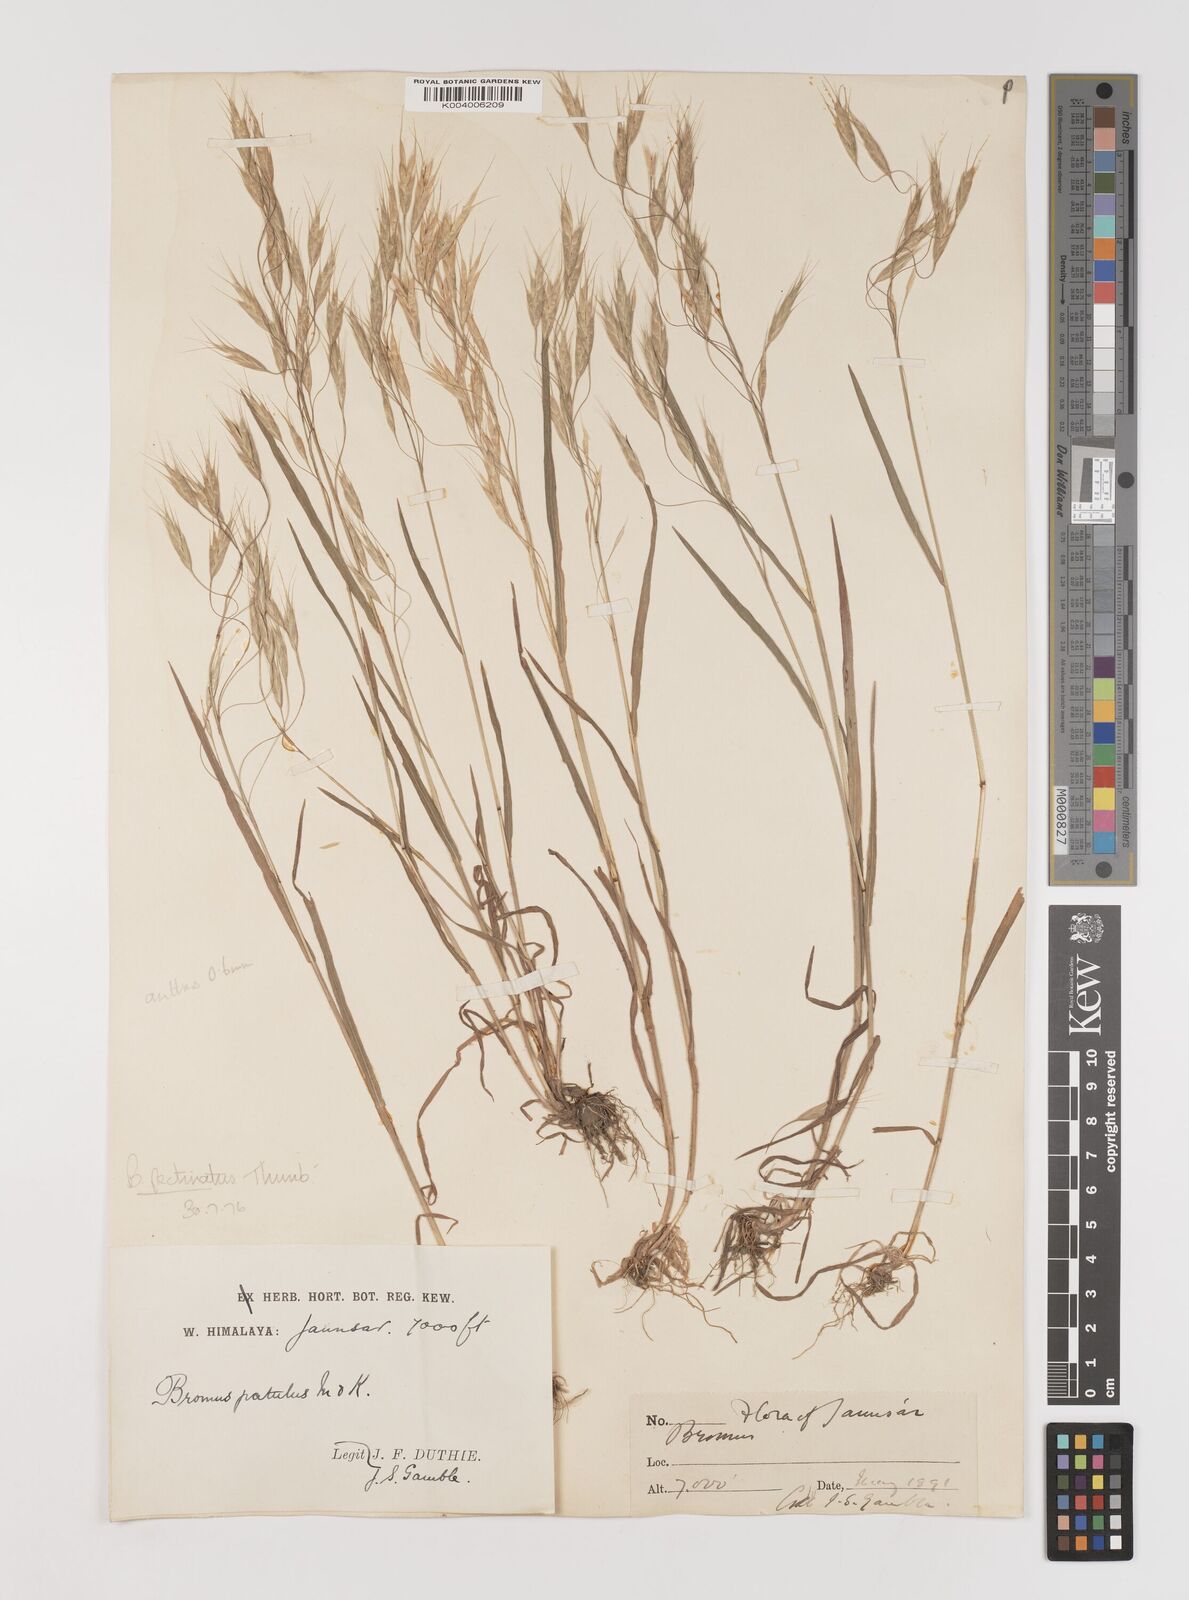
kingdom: Plantae
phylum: Tracheophyta
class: Liliopsida
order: Poales
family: Poaceae
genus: Bromus
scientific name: Bromus pectinatus
